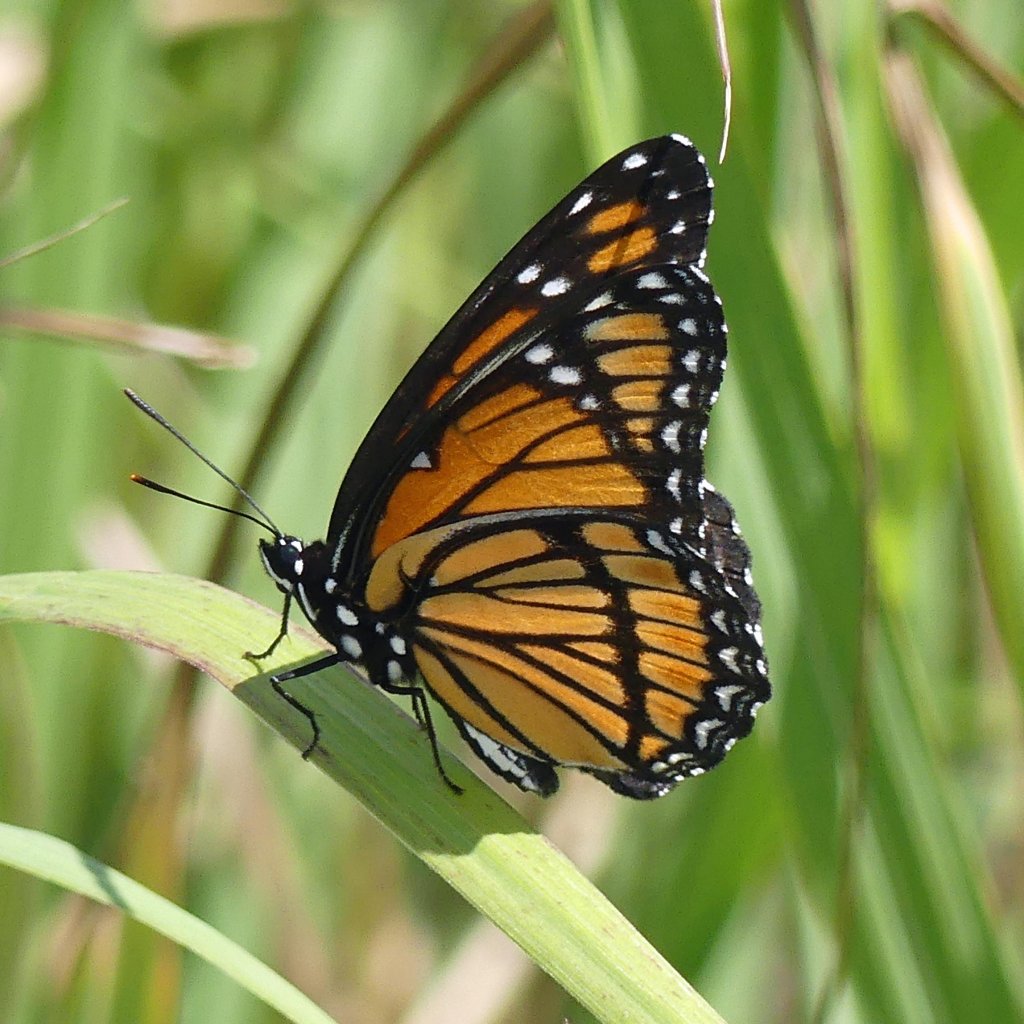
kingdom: Animalia
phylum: Arthropoda
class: Insecta
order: Lepidoptera
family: Nymphalidae
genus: Limenitis
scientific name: Limenitis archippus
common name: Viceroy
